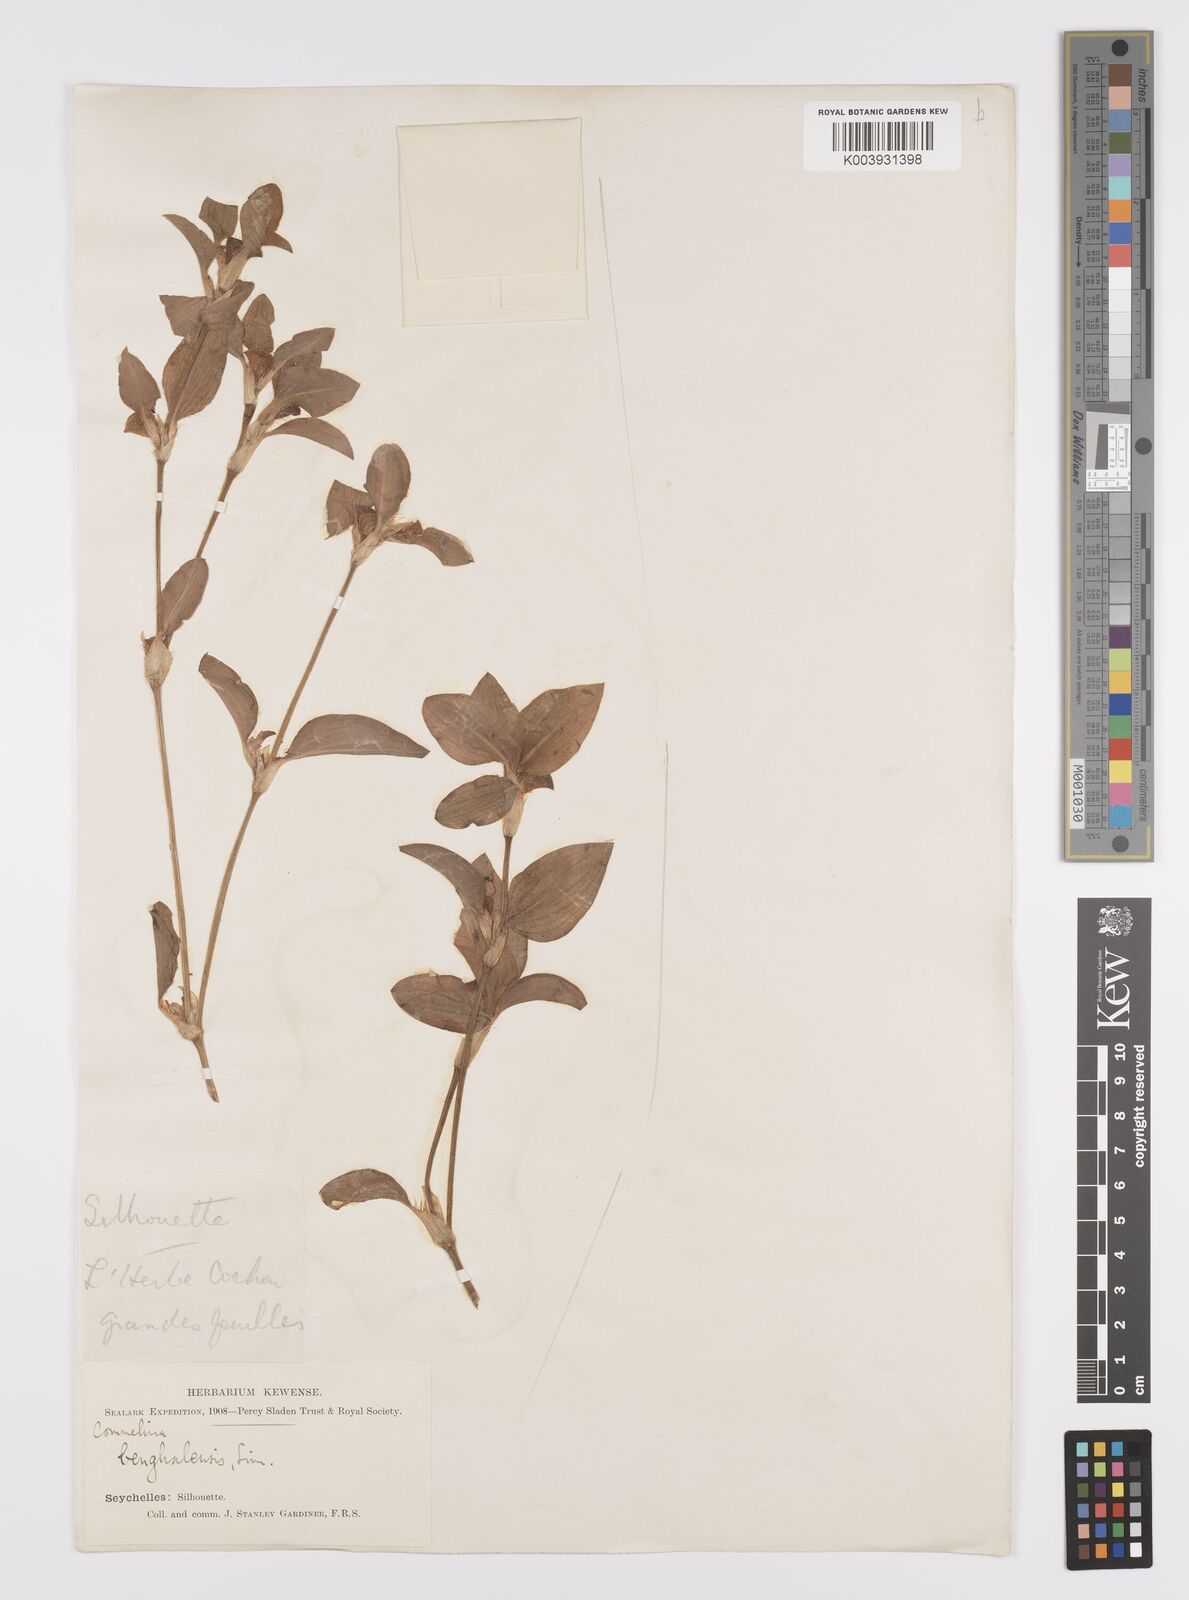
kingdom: Plantae
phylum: Tracheophyta
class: Liliopsida
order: Commelinales
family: Commelinaceae
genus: Commelina
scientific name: Commelina benghalensis
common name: Jio
